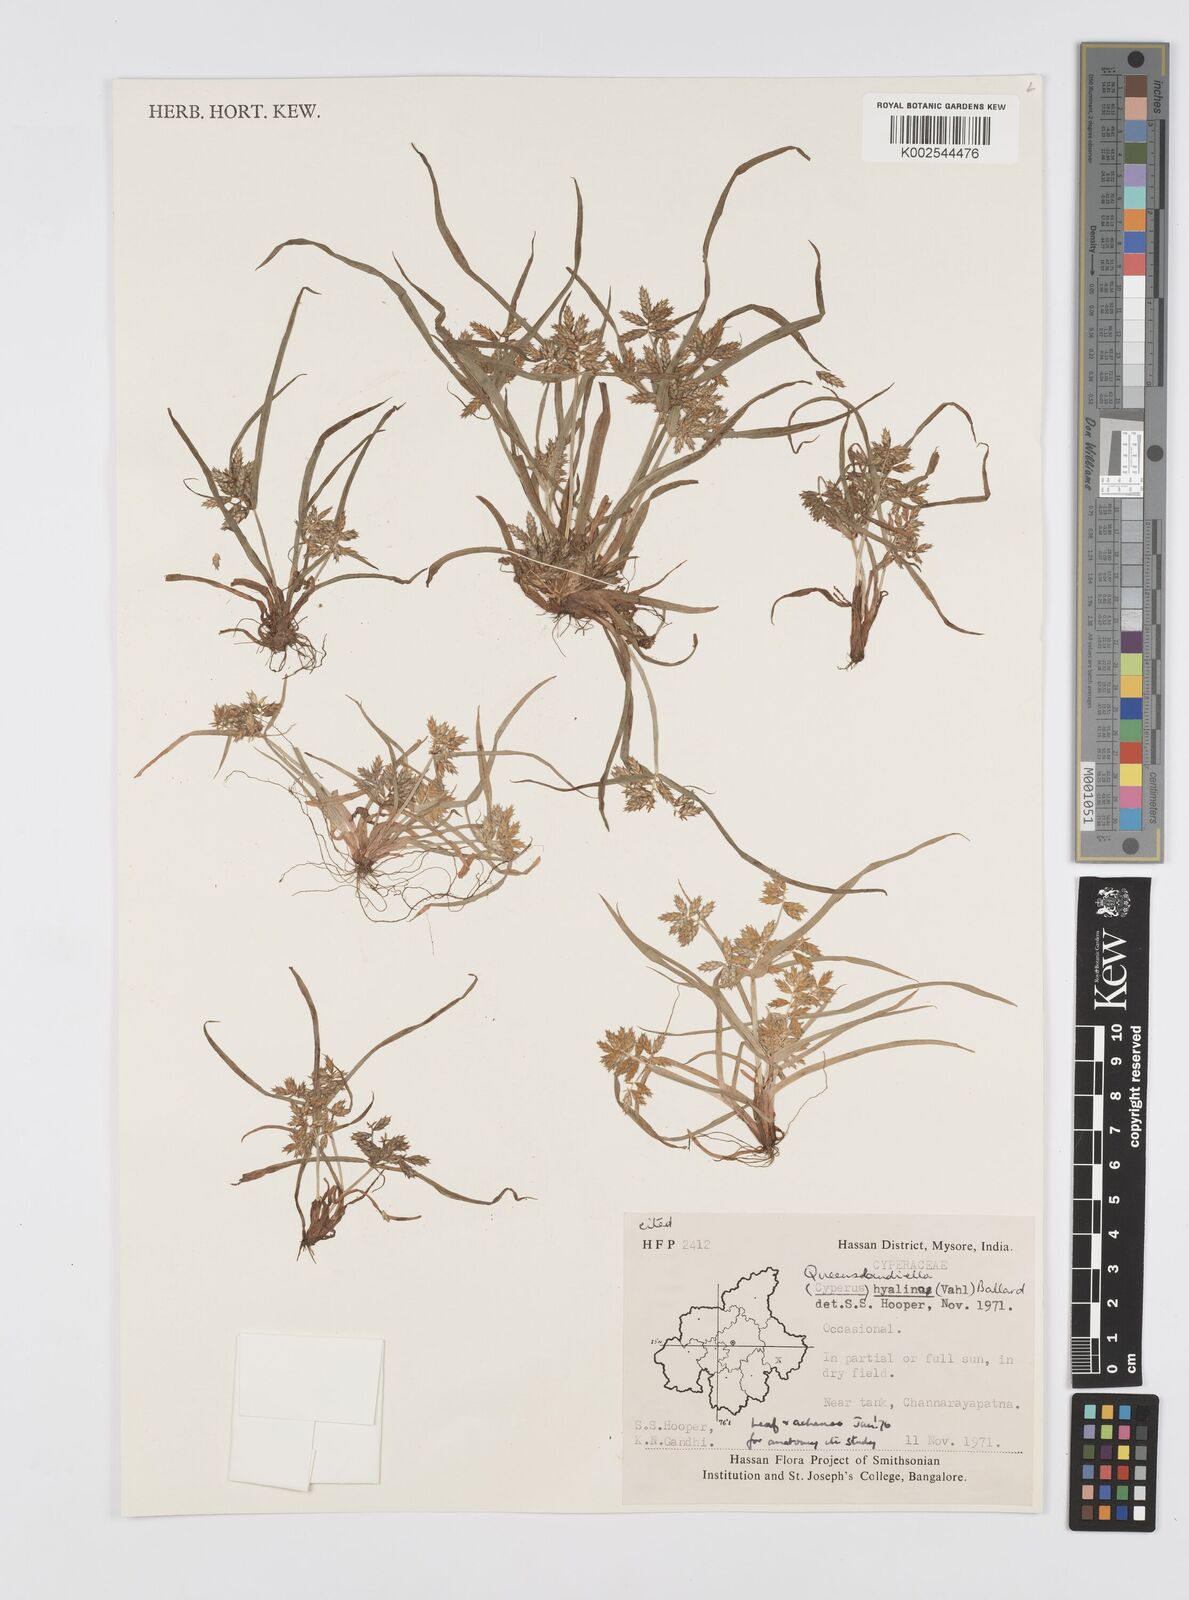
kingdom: Plantae
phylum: Tracheophyta
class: Liliopsida
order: Poales
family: Cyperaceae
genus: Cyperus
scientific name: Cyperus hyalinus
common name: Queensland sedge
